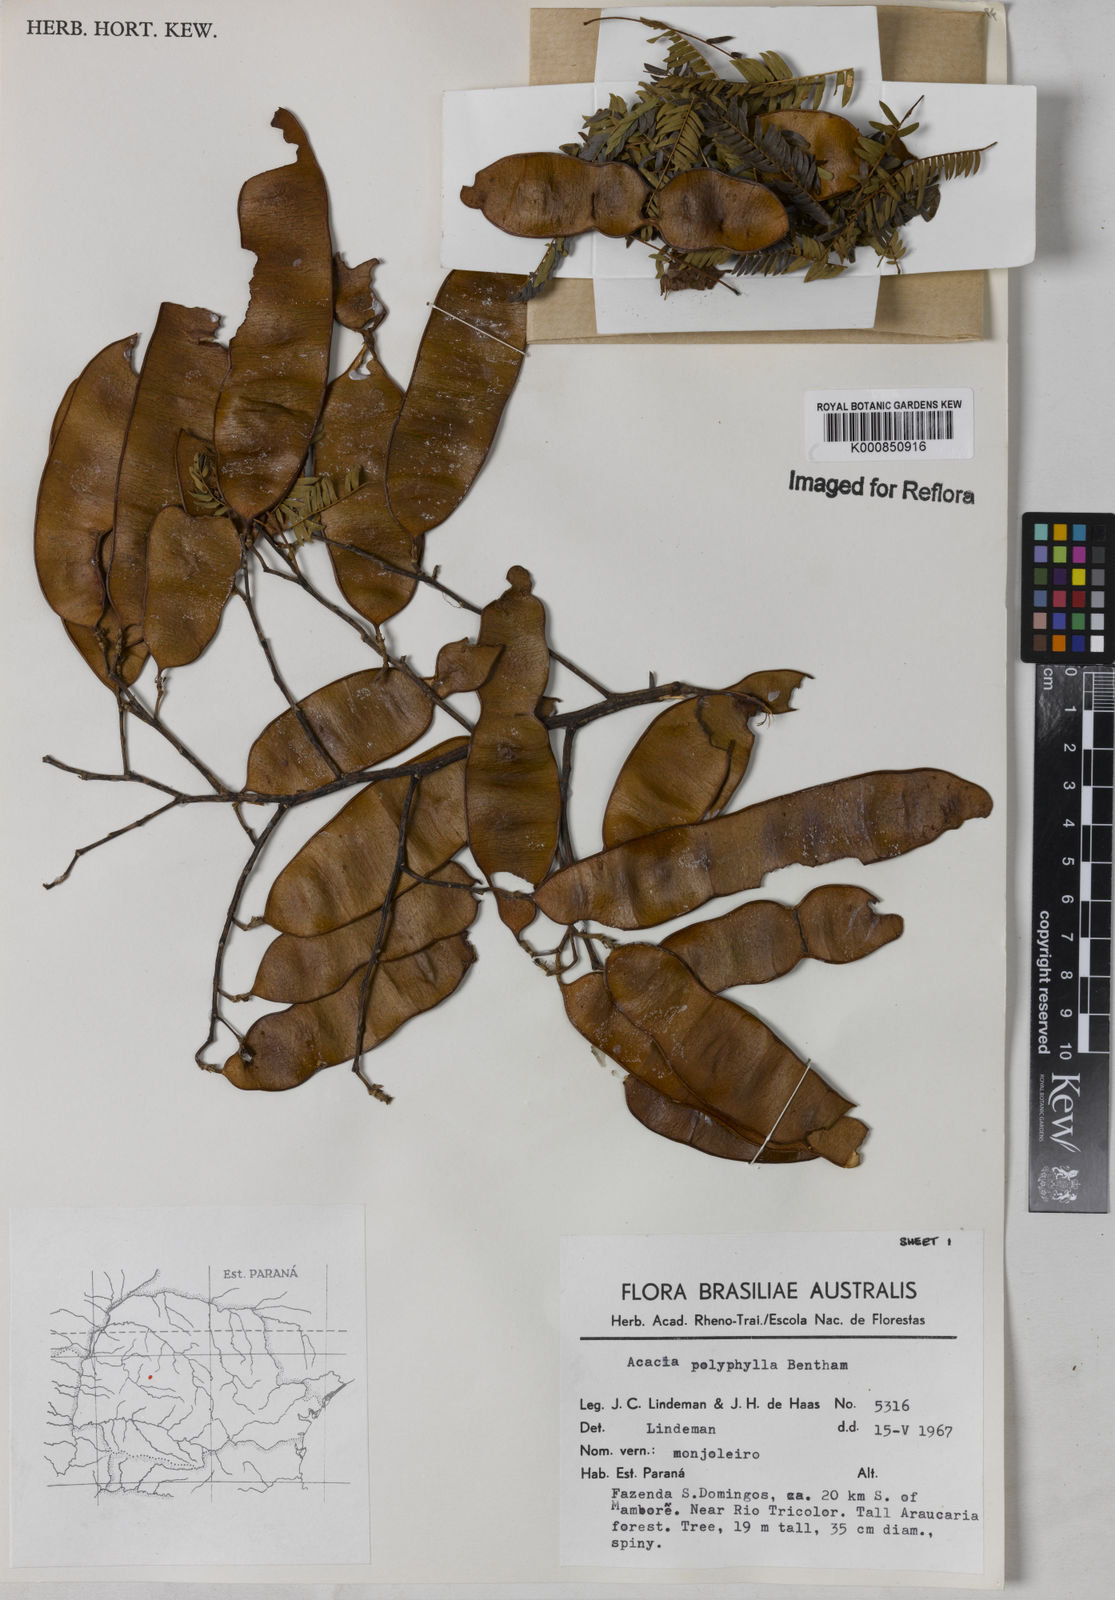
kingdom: Plantae
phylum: Tracheophyta
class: Magnoliopsida
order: Fabales
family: Fabaceae
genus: Senegalia
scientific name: Senegalia polyphylla
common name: White-tamarind
